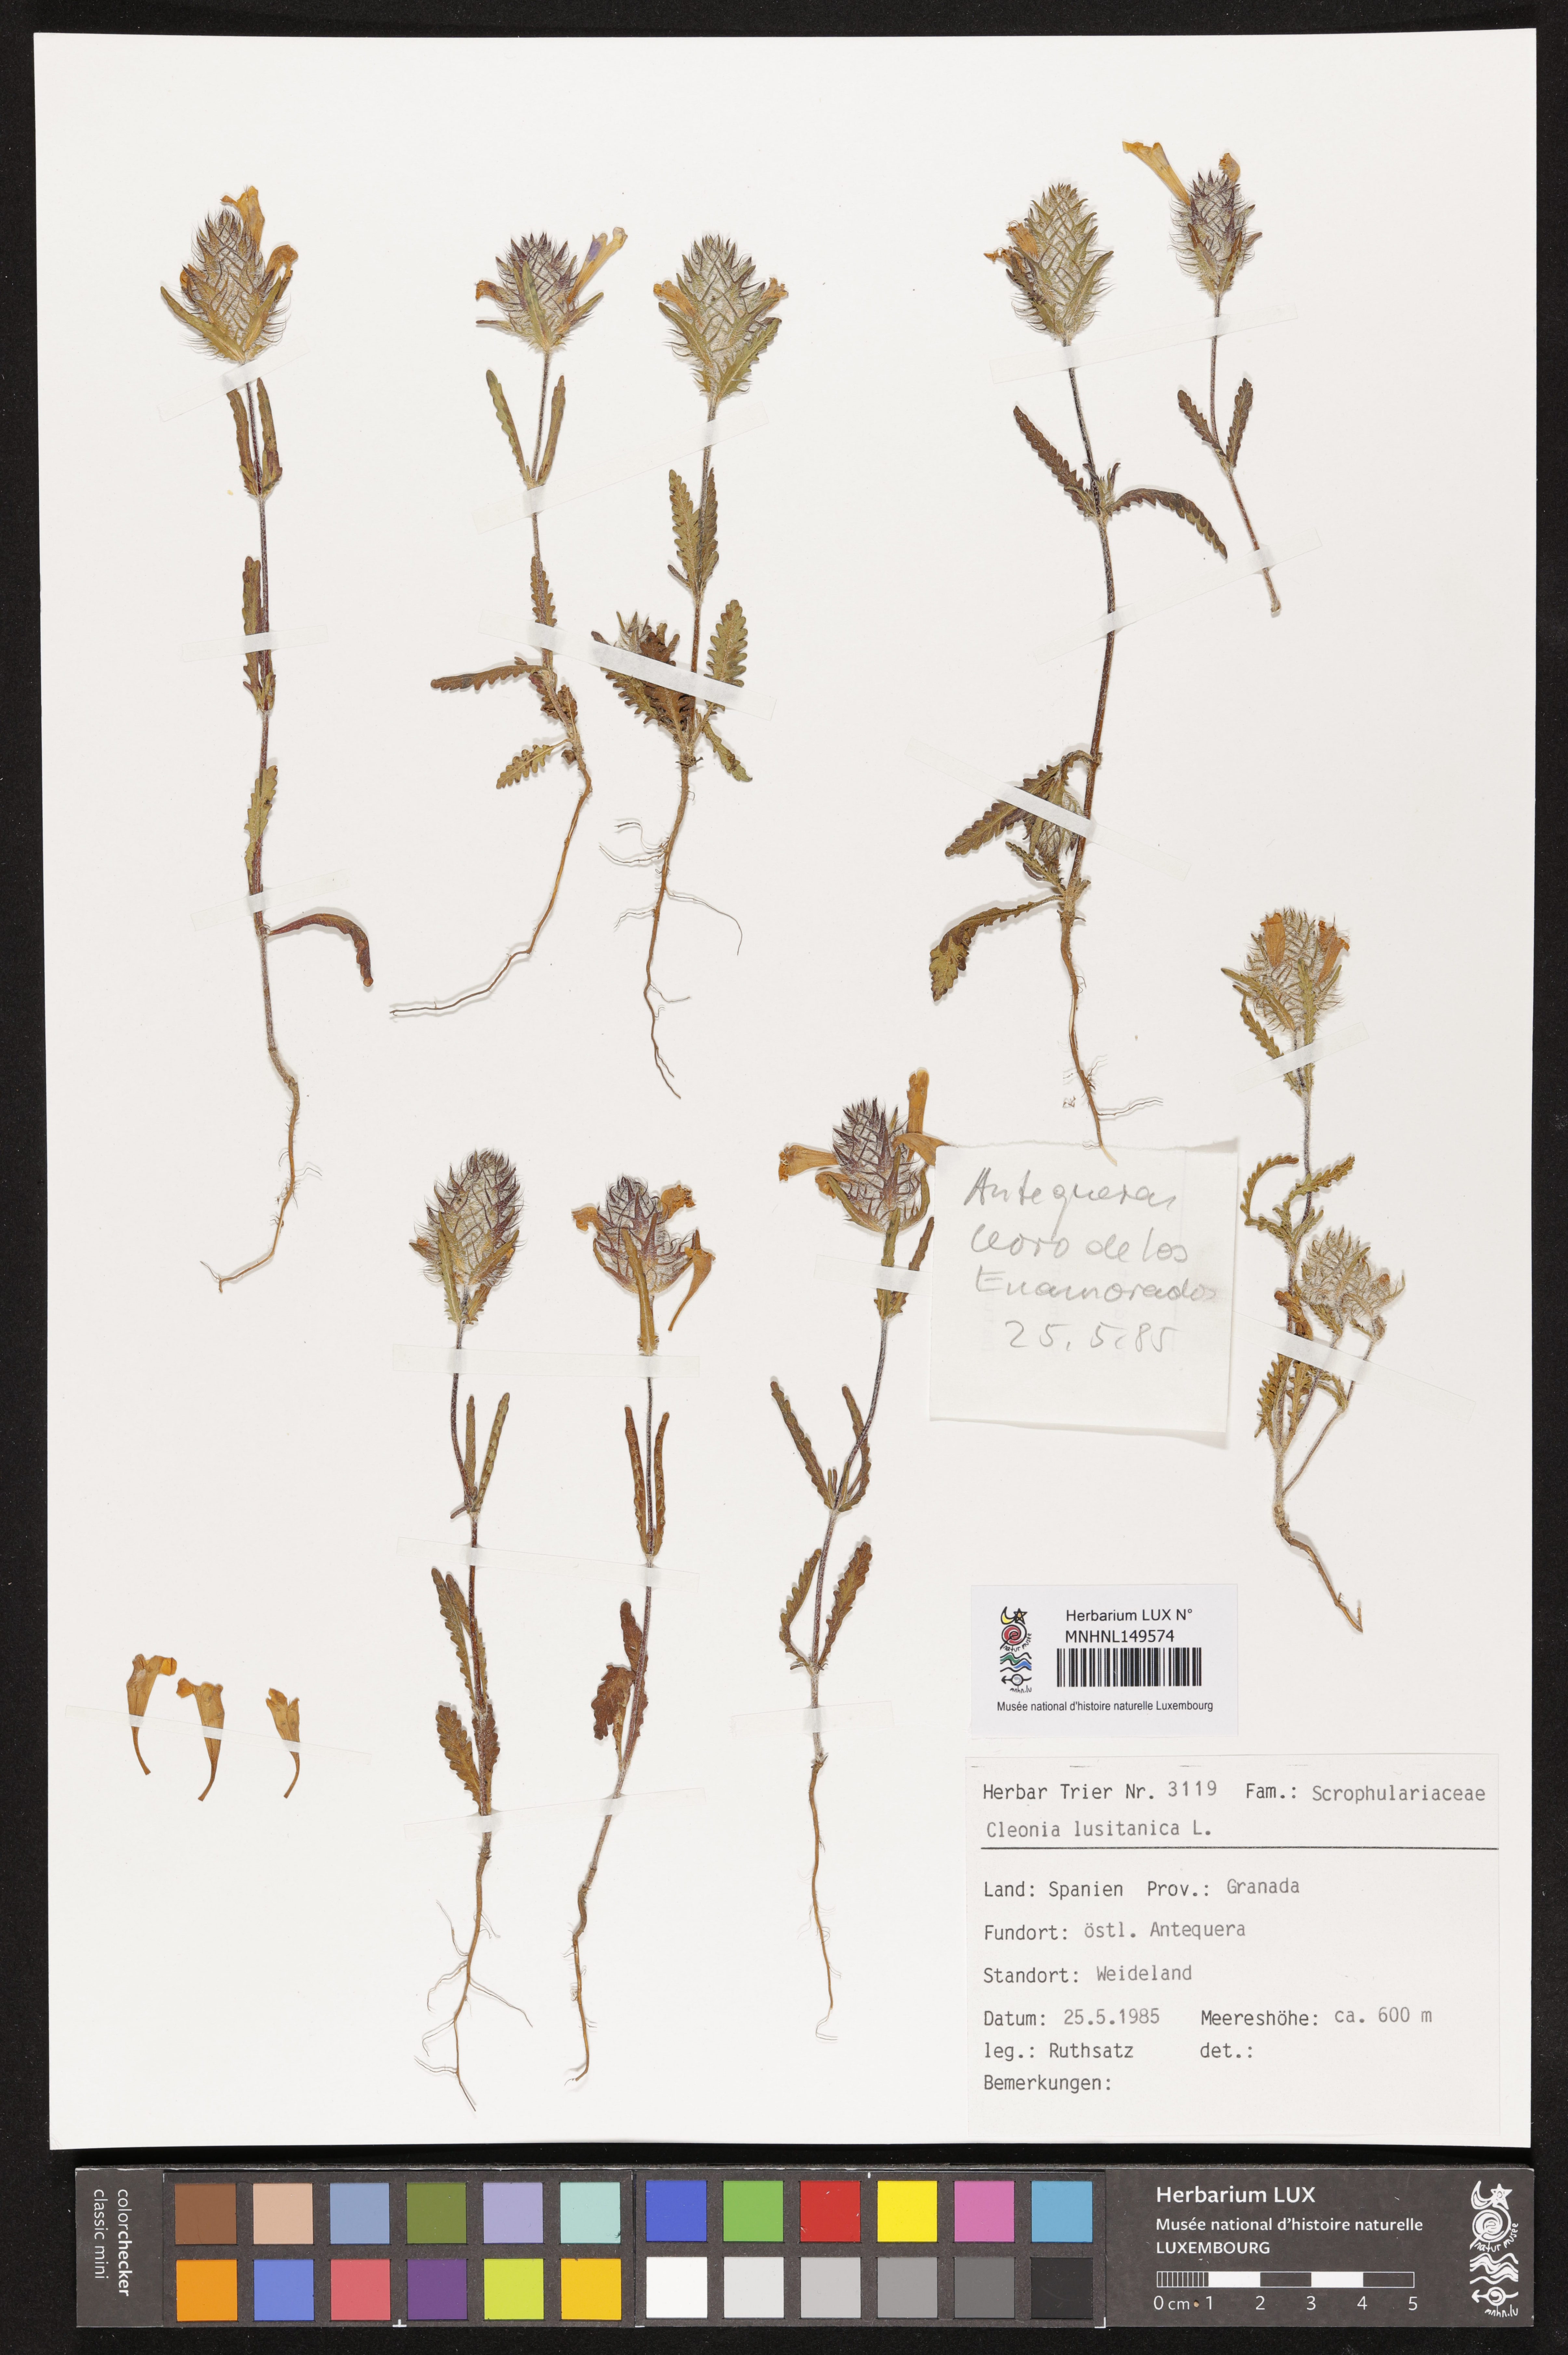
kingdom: Plantae
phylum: Tracheophyta
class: Magnoliopsida
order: Lamiales
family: Lamiaceae
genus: Cleonia
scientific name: Cleonia lusitanica
